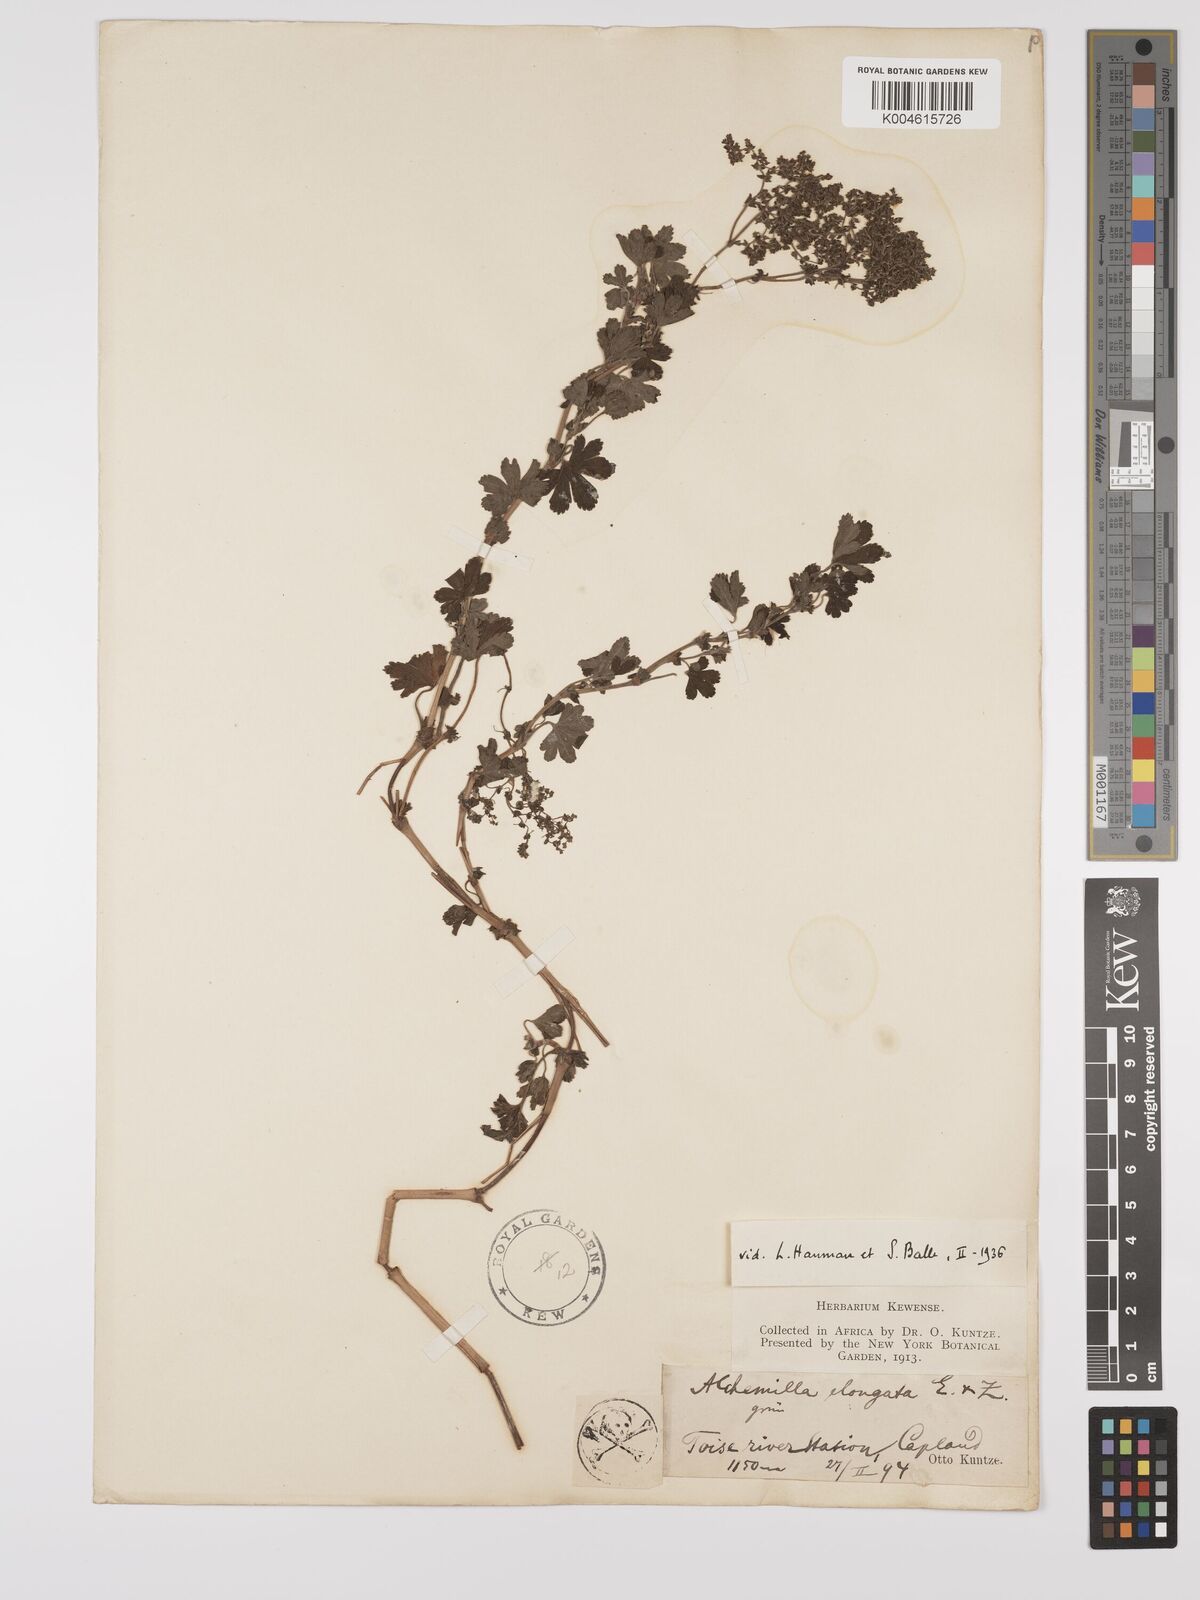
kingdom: Plantae
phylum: Tracheophyta
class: Magnoliopsida
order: Rosales
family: Rosaceae
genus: Alchemilla
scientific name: Alchemilla elongata
